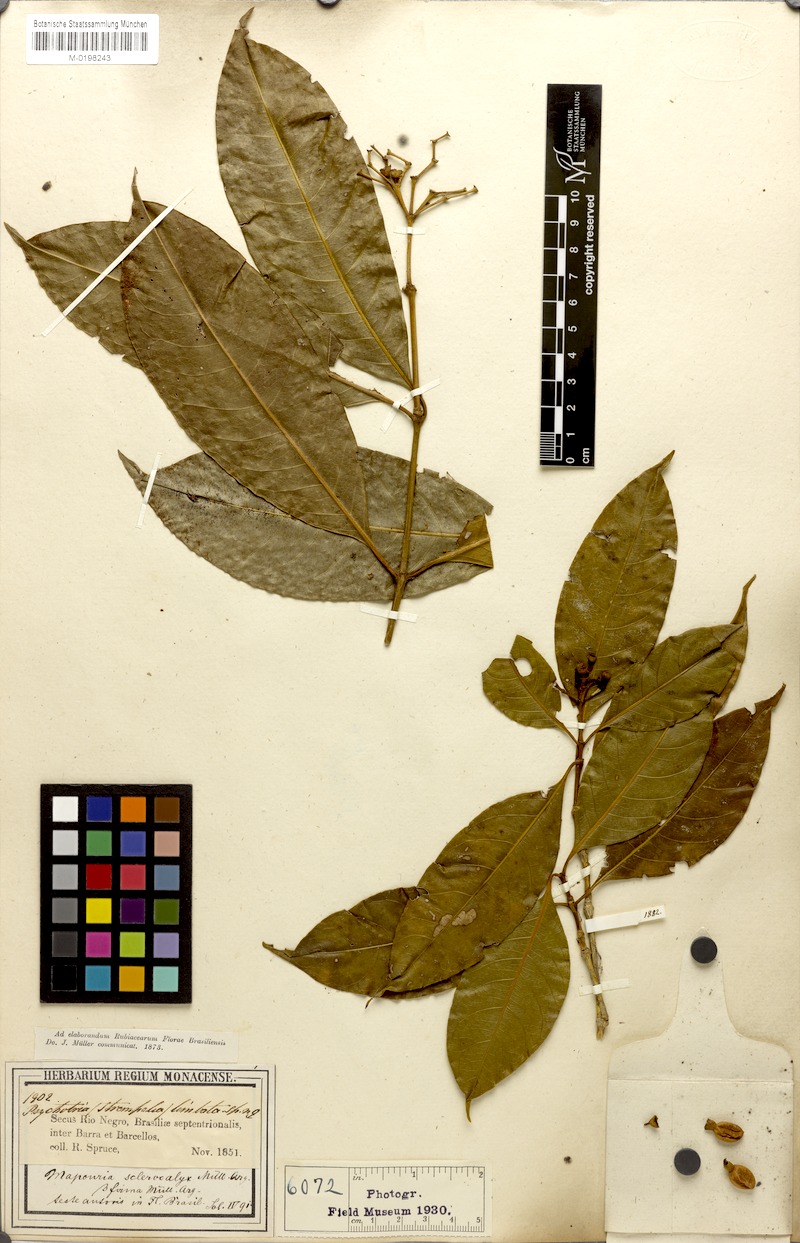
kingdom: Plantae
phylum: Tracheophyta
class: Magnoliopsida
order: Gentianales
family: Rubiaceae
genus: Rudgea
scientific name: Rudgea sclerocalyx
